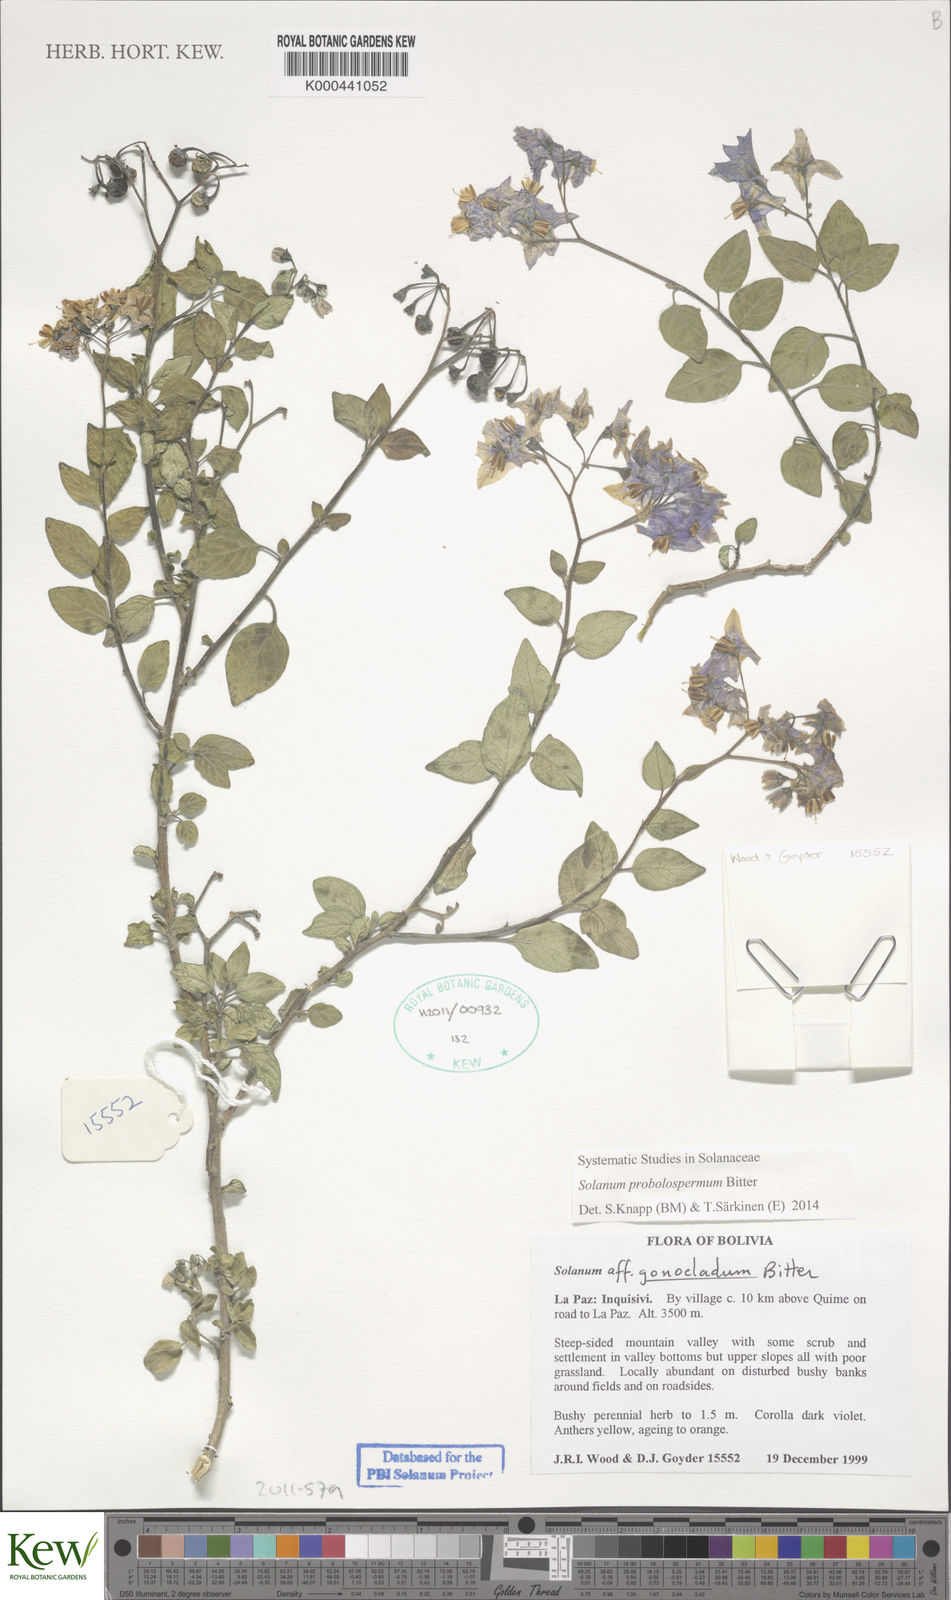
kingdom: Plantae
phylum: Tracheophyta
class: Magnoliopsida
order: Solanales
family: Solanaceae
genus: Solanum
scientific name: Solanum probolospermum
